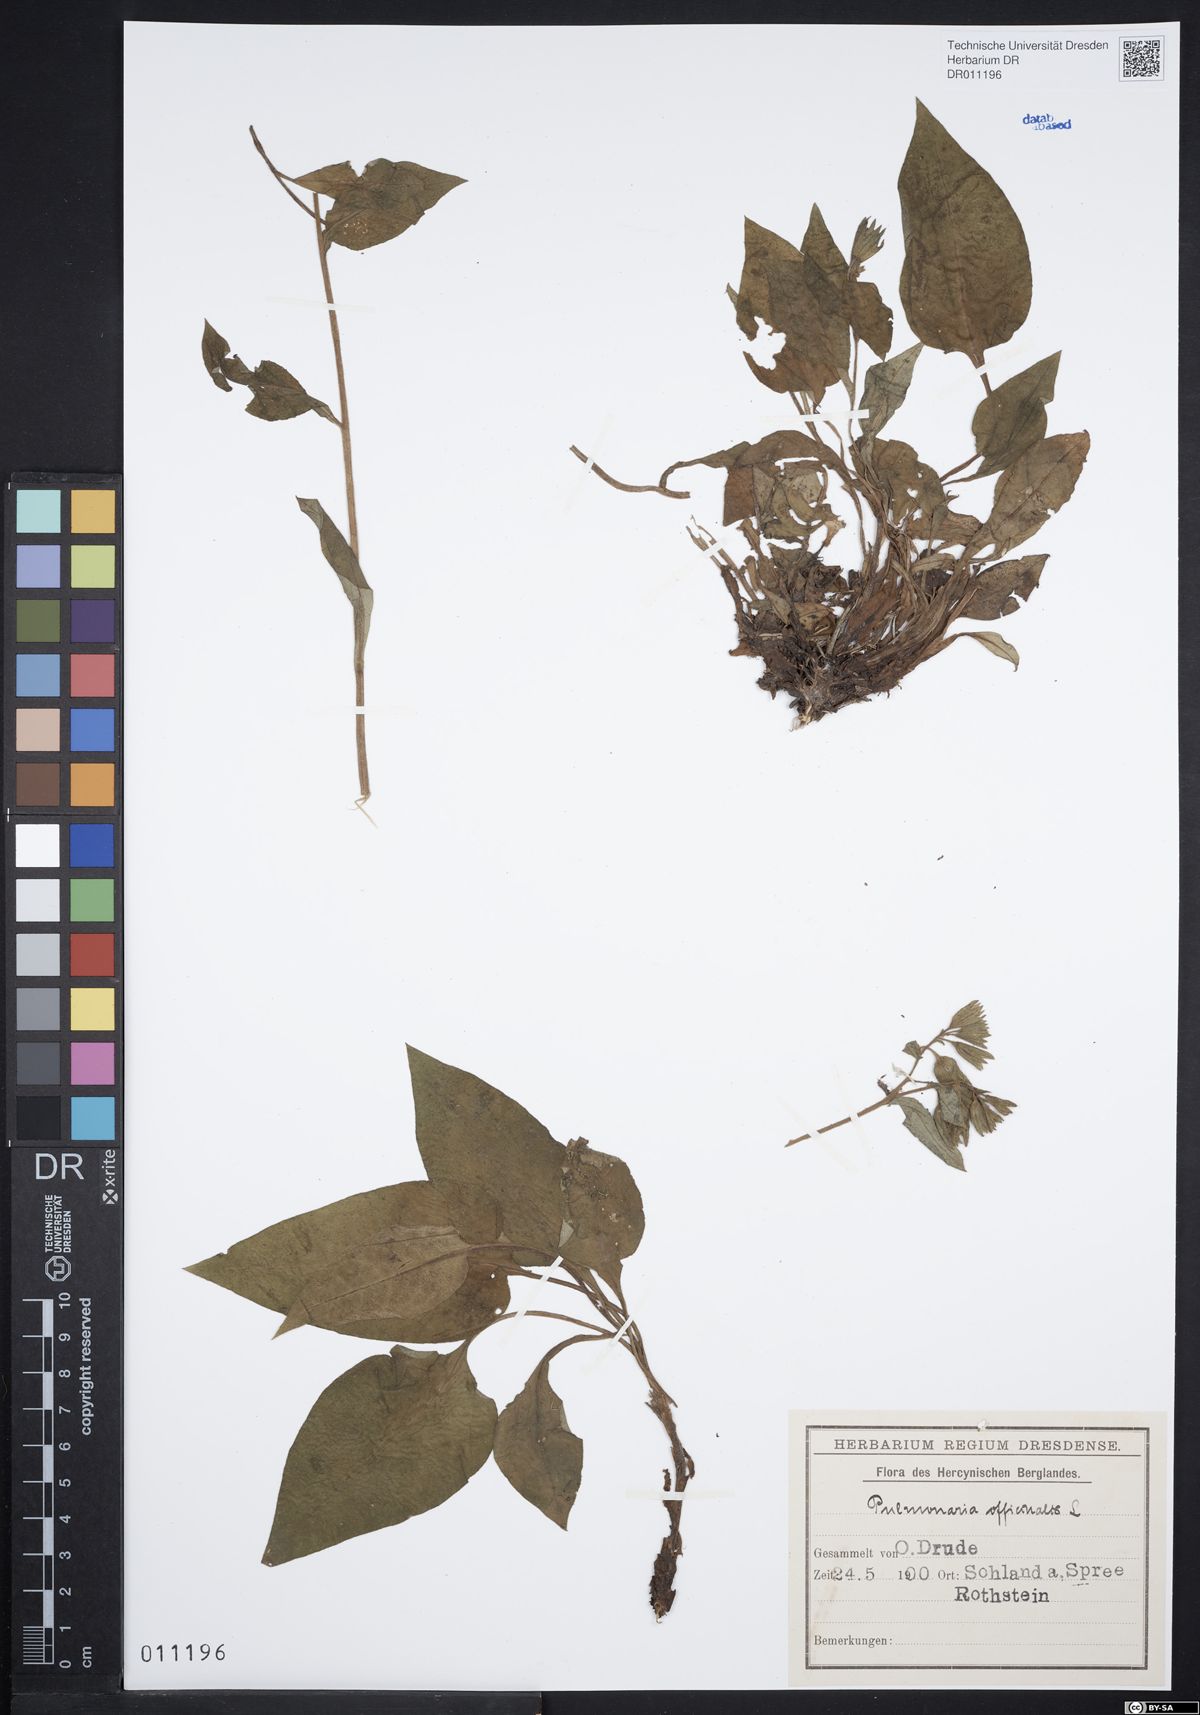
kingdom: Plantae
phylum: Tracheophyta
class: Magnoliopsida
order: Boraginales
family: Boraginaceae
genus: Pulmonaria
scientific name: Pulmonaria obscura
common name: Suffolk lungwort
